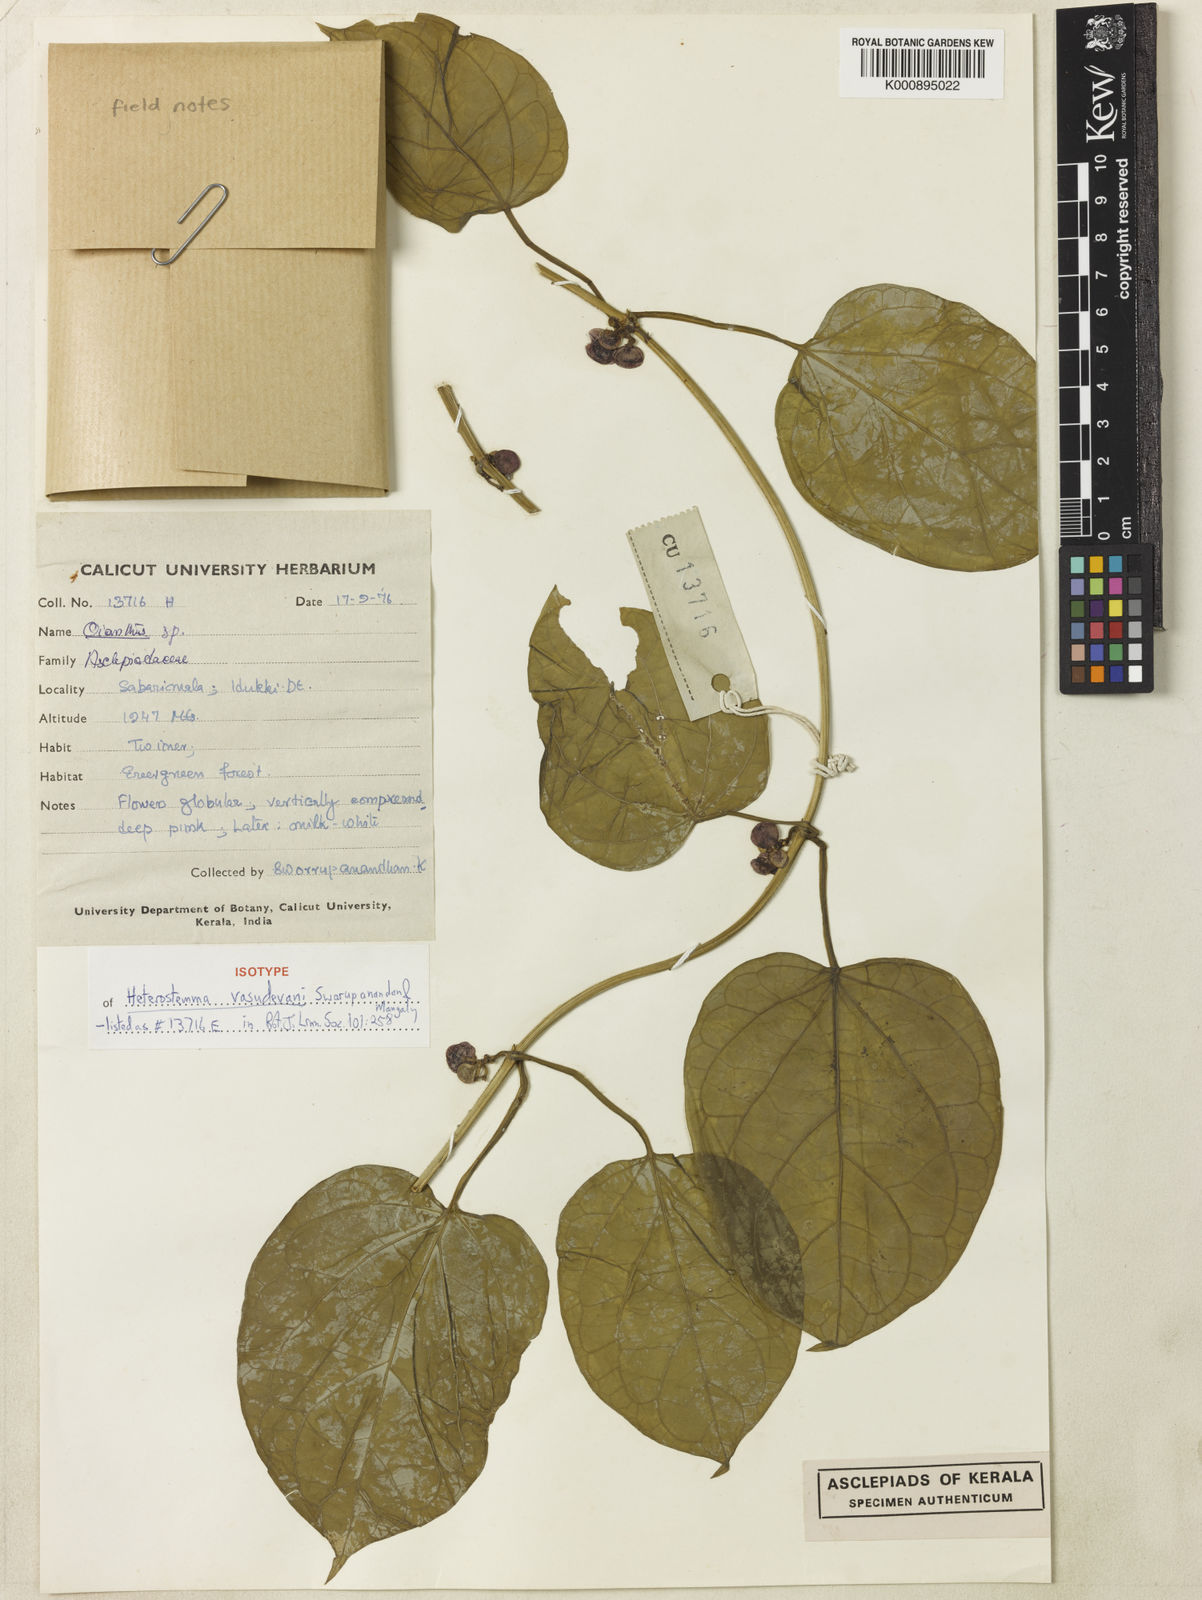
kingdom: Plantae
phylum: Tracheophyta
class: Magnoliopsida
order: Gentianales
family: Apocynaceae
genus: Heterostemma
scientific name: Heterostemma vasudevanii
